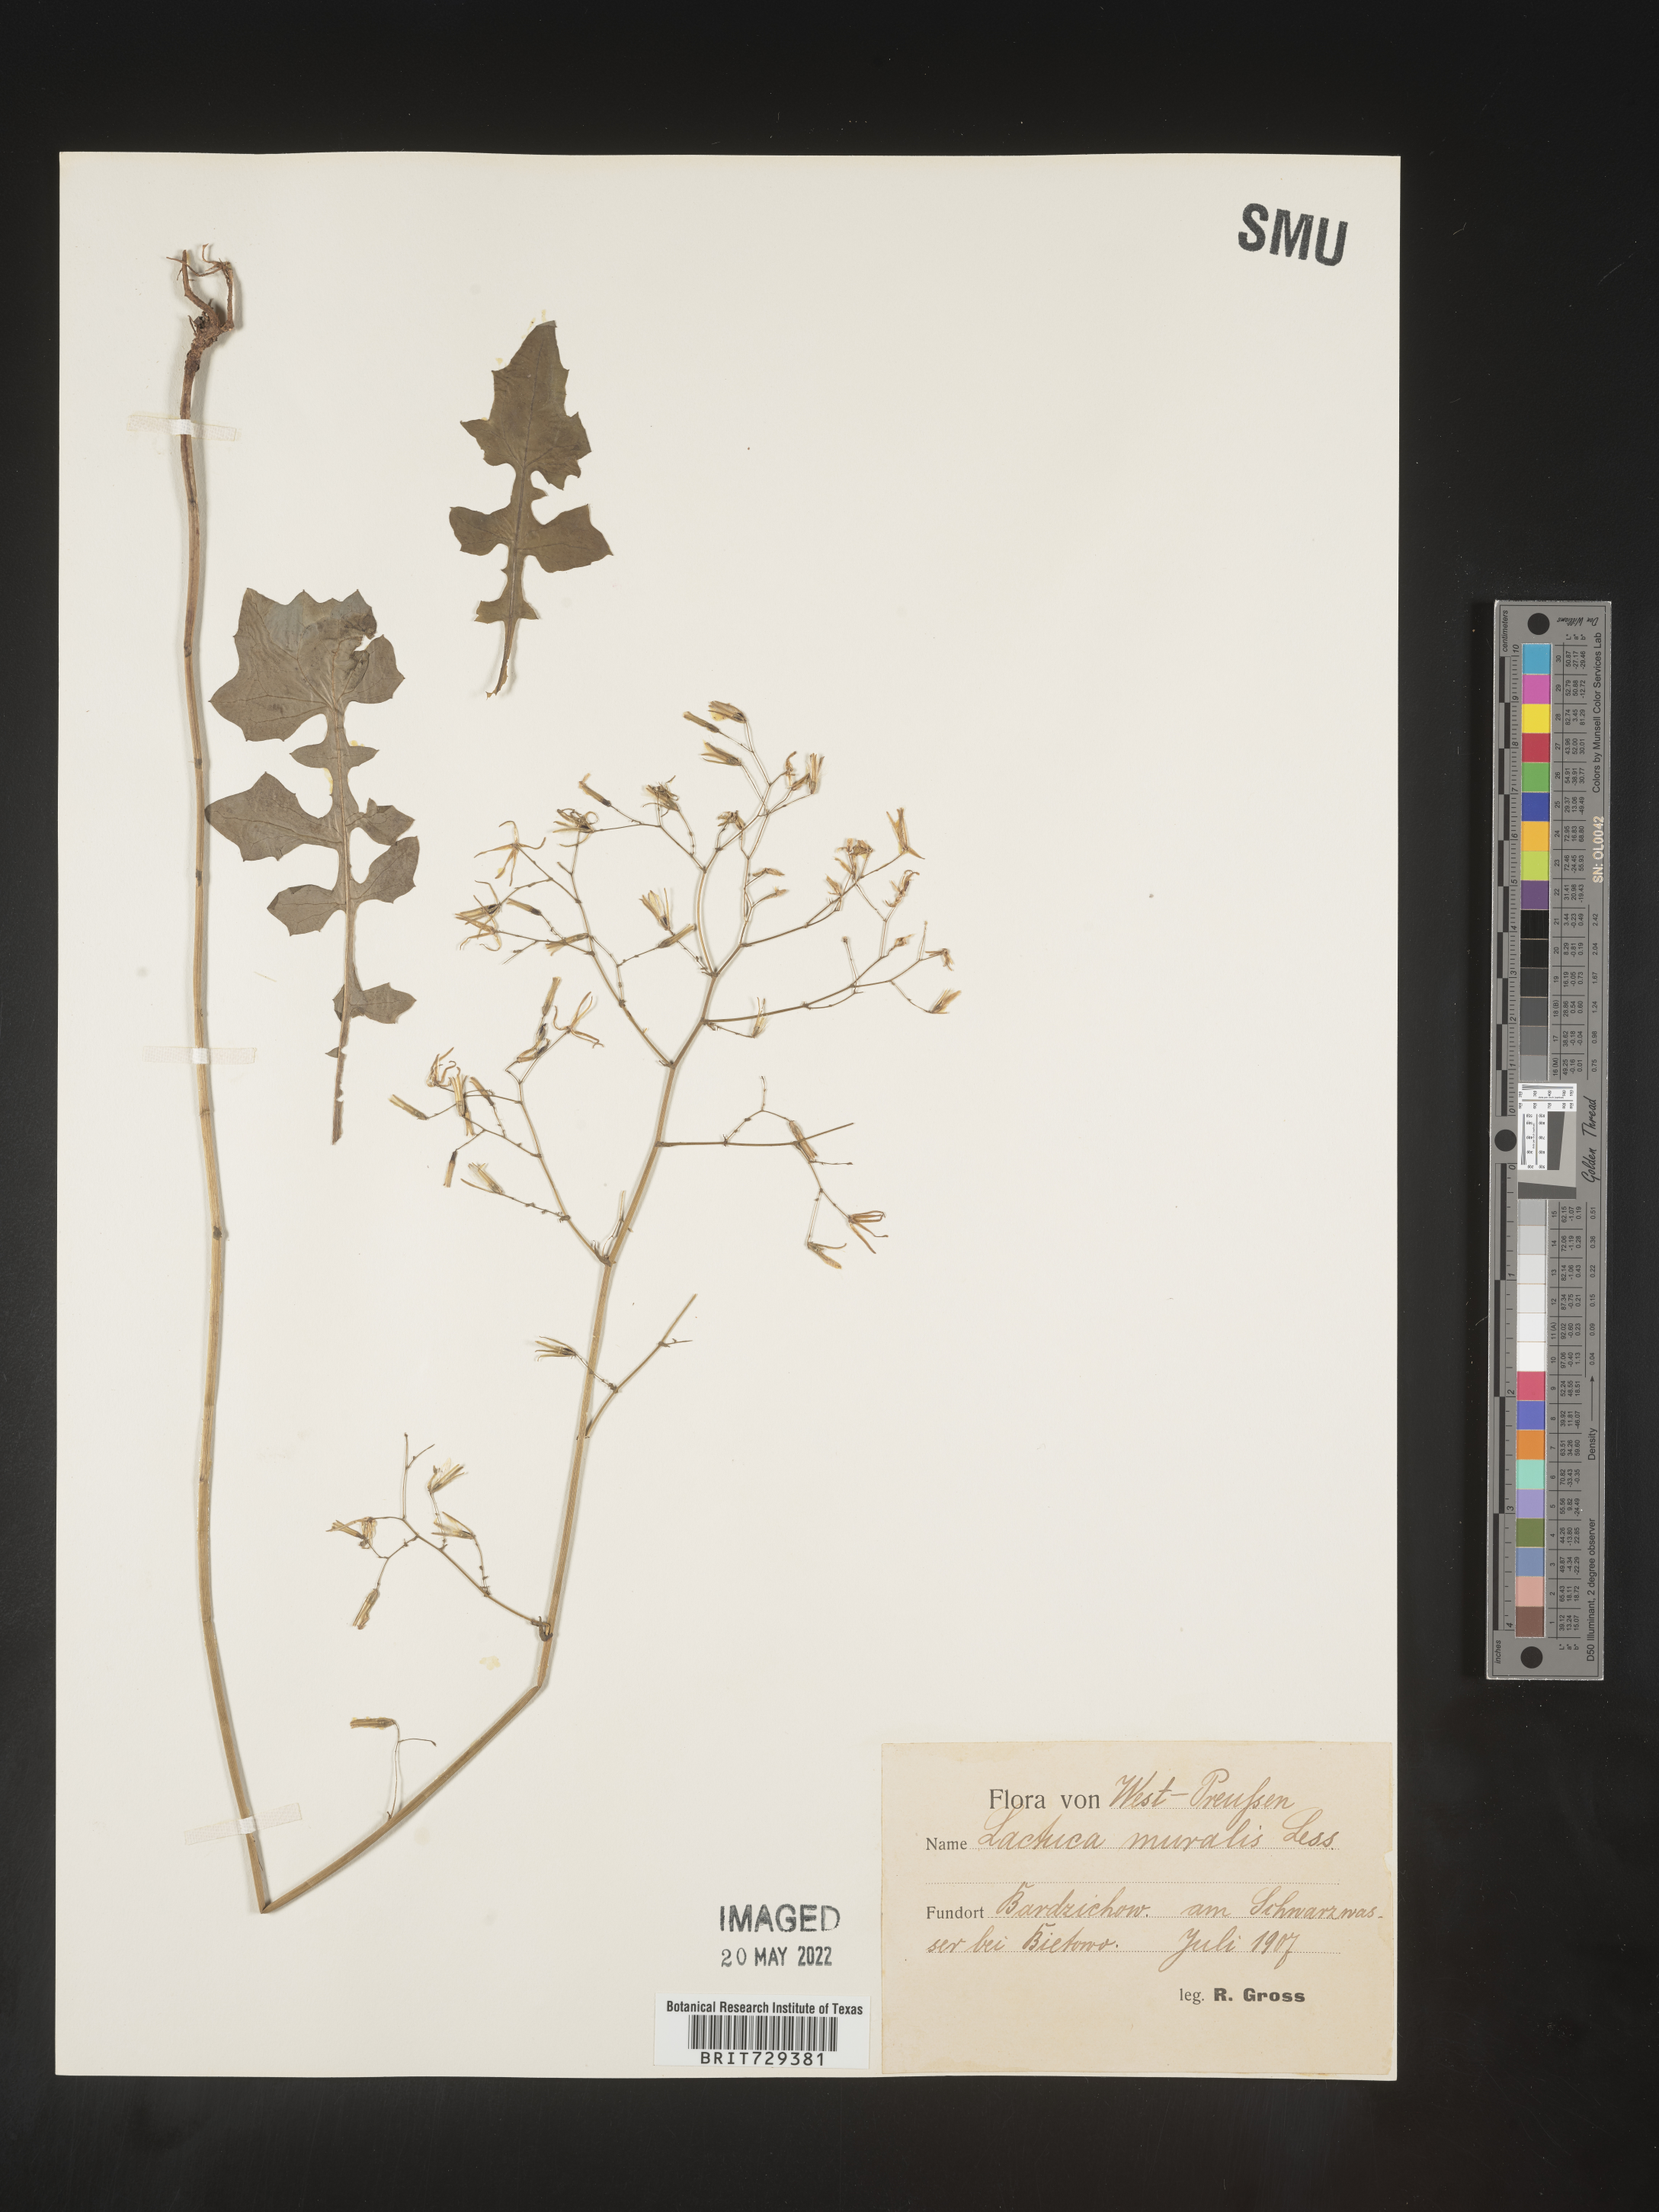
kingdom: Plantae
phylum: Tracheophyta
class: Magnoliopsida
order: Asterales
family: Asteraceae
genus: Lactuca
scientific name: Lactuca
